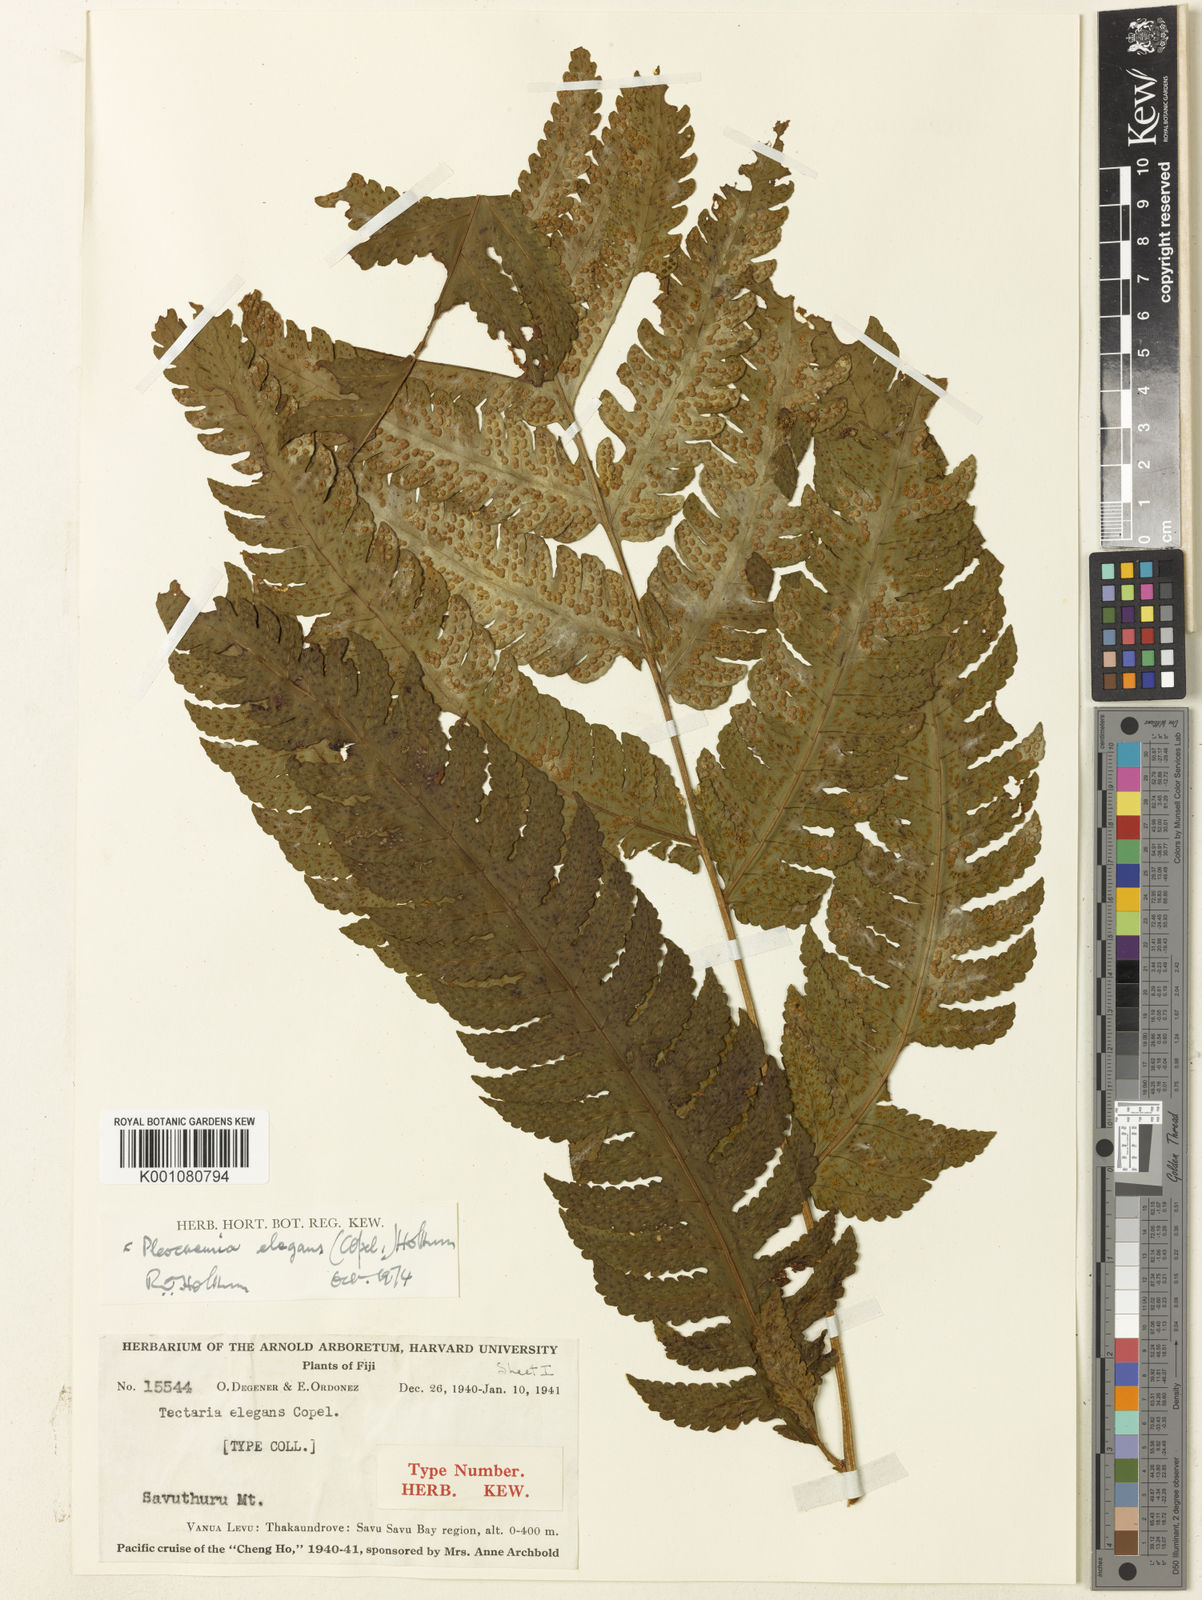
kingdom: Plantae
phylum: Tracheophyta
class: Polypodiopsida
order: Polypodiales
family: Dryopteridaceae
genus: Pleocnemia
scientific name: Pleocnemia elegans
